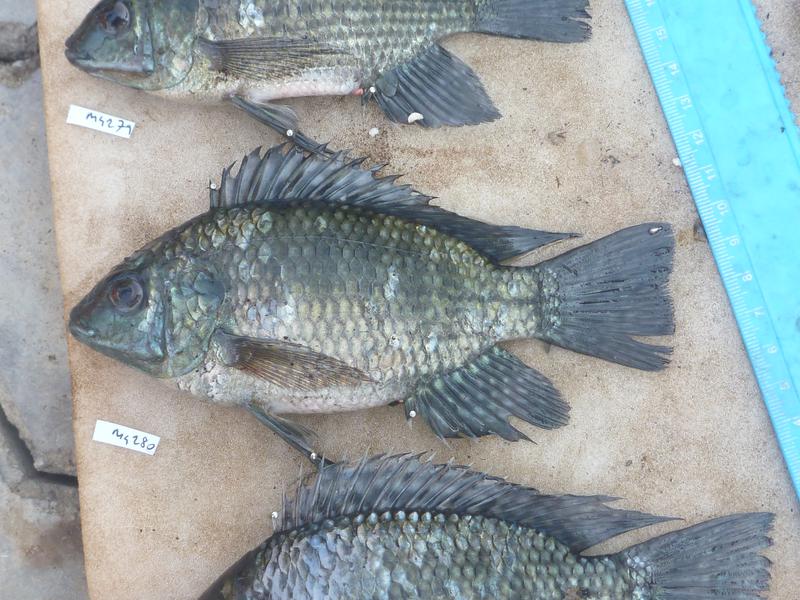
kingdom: Animalia
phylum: Chordata
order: Perciformes
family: Cichlidae
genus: Oreochromis
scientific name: Oreochromis leucostictus
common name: Blue spotted tilapia
